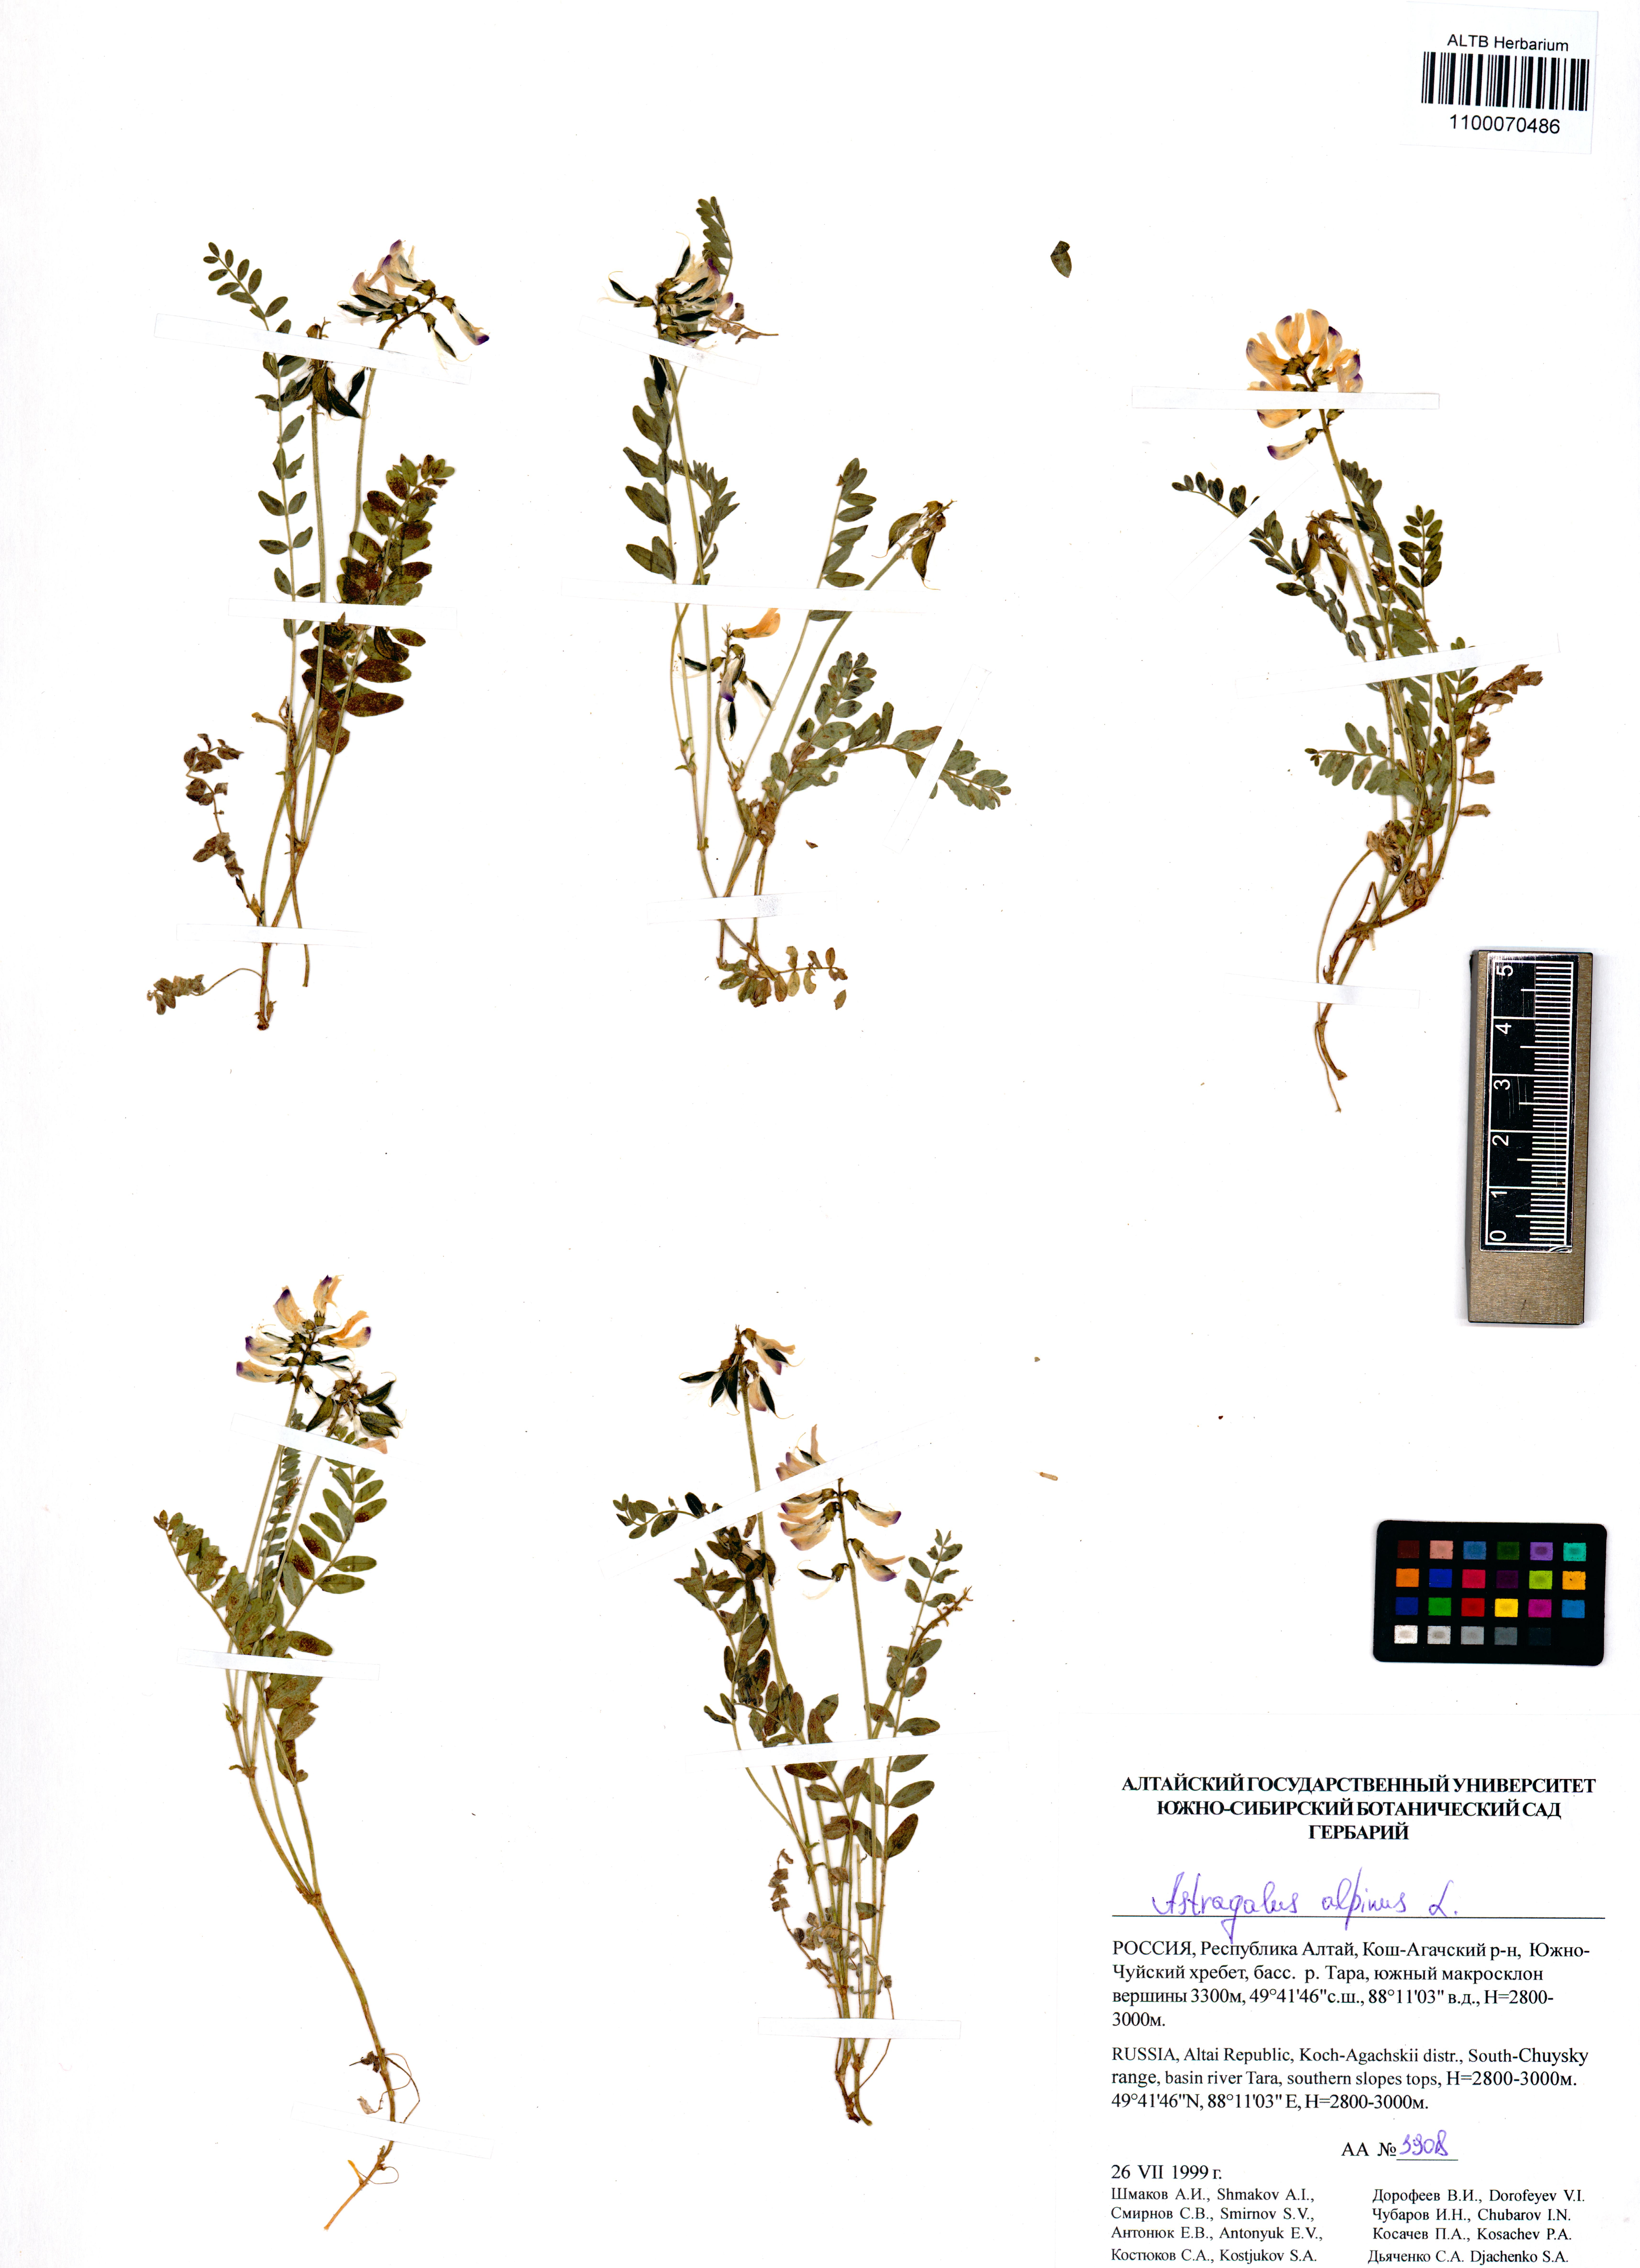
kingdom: Plantae
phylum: Tracheophyta
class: Magnoliopsida
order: Fabales
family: Fabaceae
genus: Astragalus
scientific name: Astragalus alpinus
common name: Alpine milk-vetch
